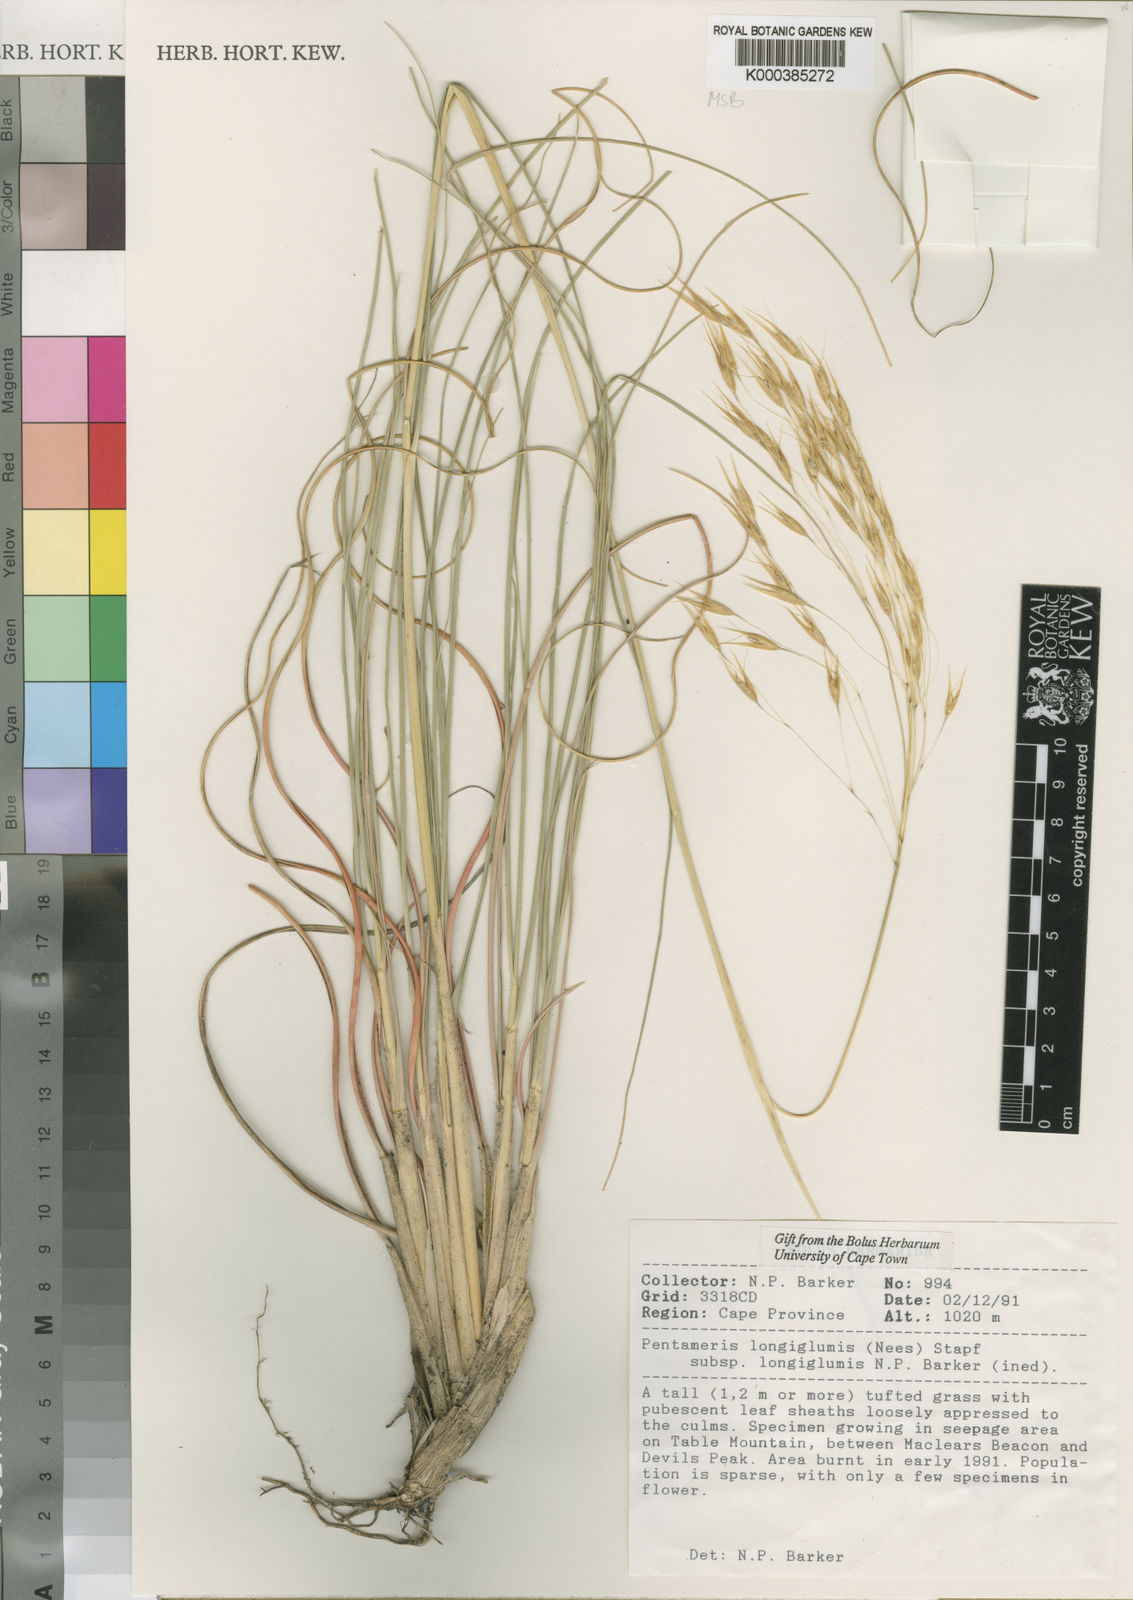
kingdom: Plantae
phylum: Tracheophyta
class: Liliopsida
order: Poales
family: Poaceae
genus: Pentameris
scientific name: Pentameris
